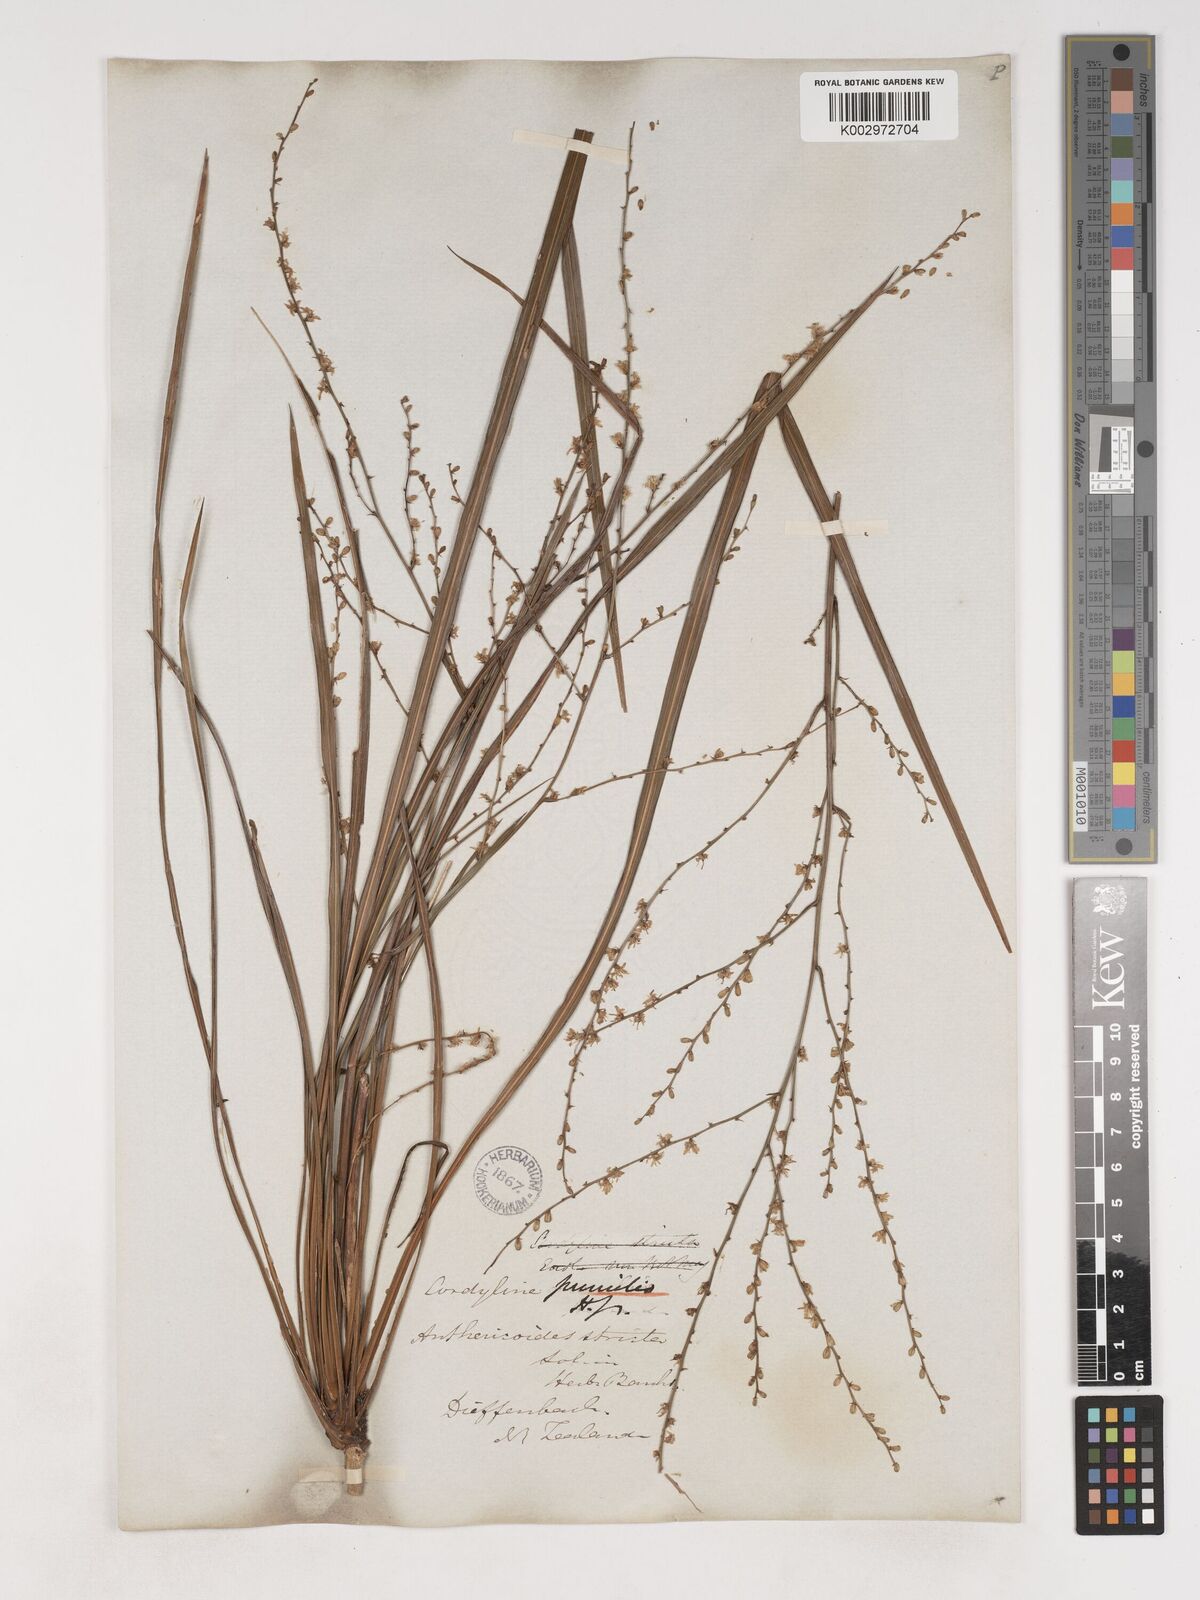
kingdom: Plantae
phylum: Tracheophyta
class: Liliopsida
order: Asparagales
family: Asparagaceae
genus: Cordyline
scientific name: Cordyline pumilio
